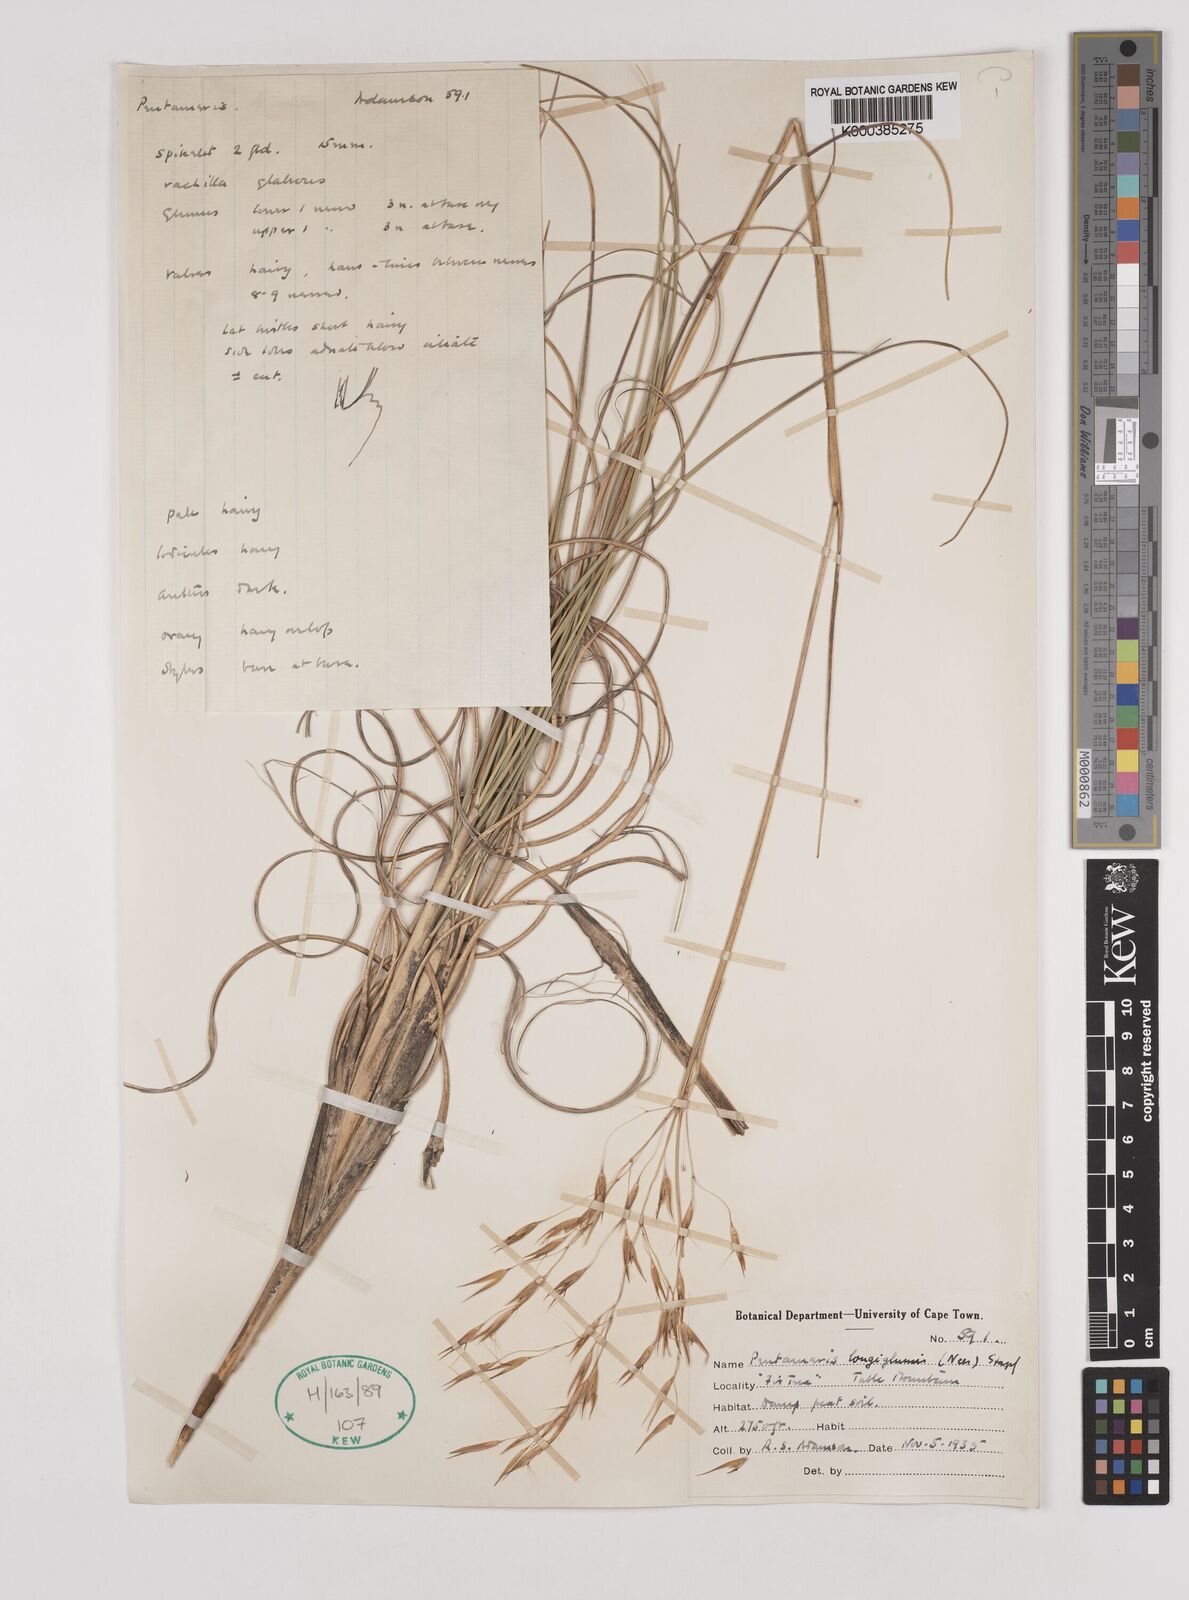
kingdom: Plantae
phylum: Tracheophyta
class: Liliopsida
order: Poales
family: Poaceae
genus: Pentameris
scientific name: Pentameris
